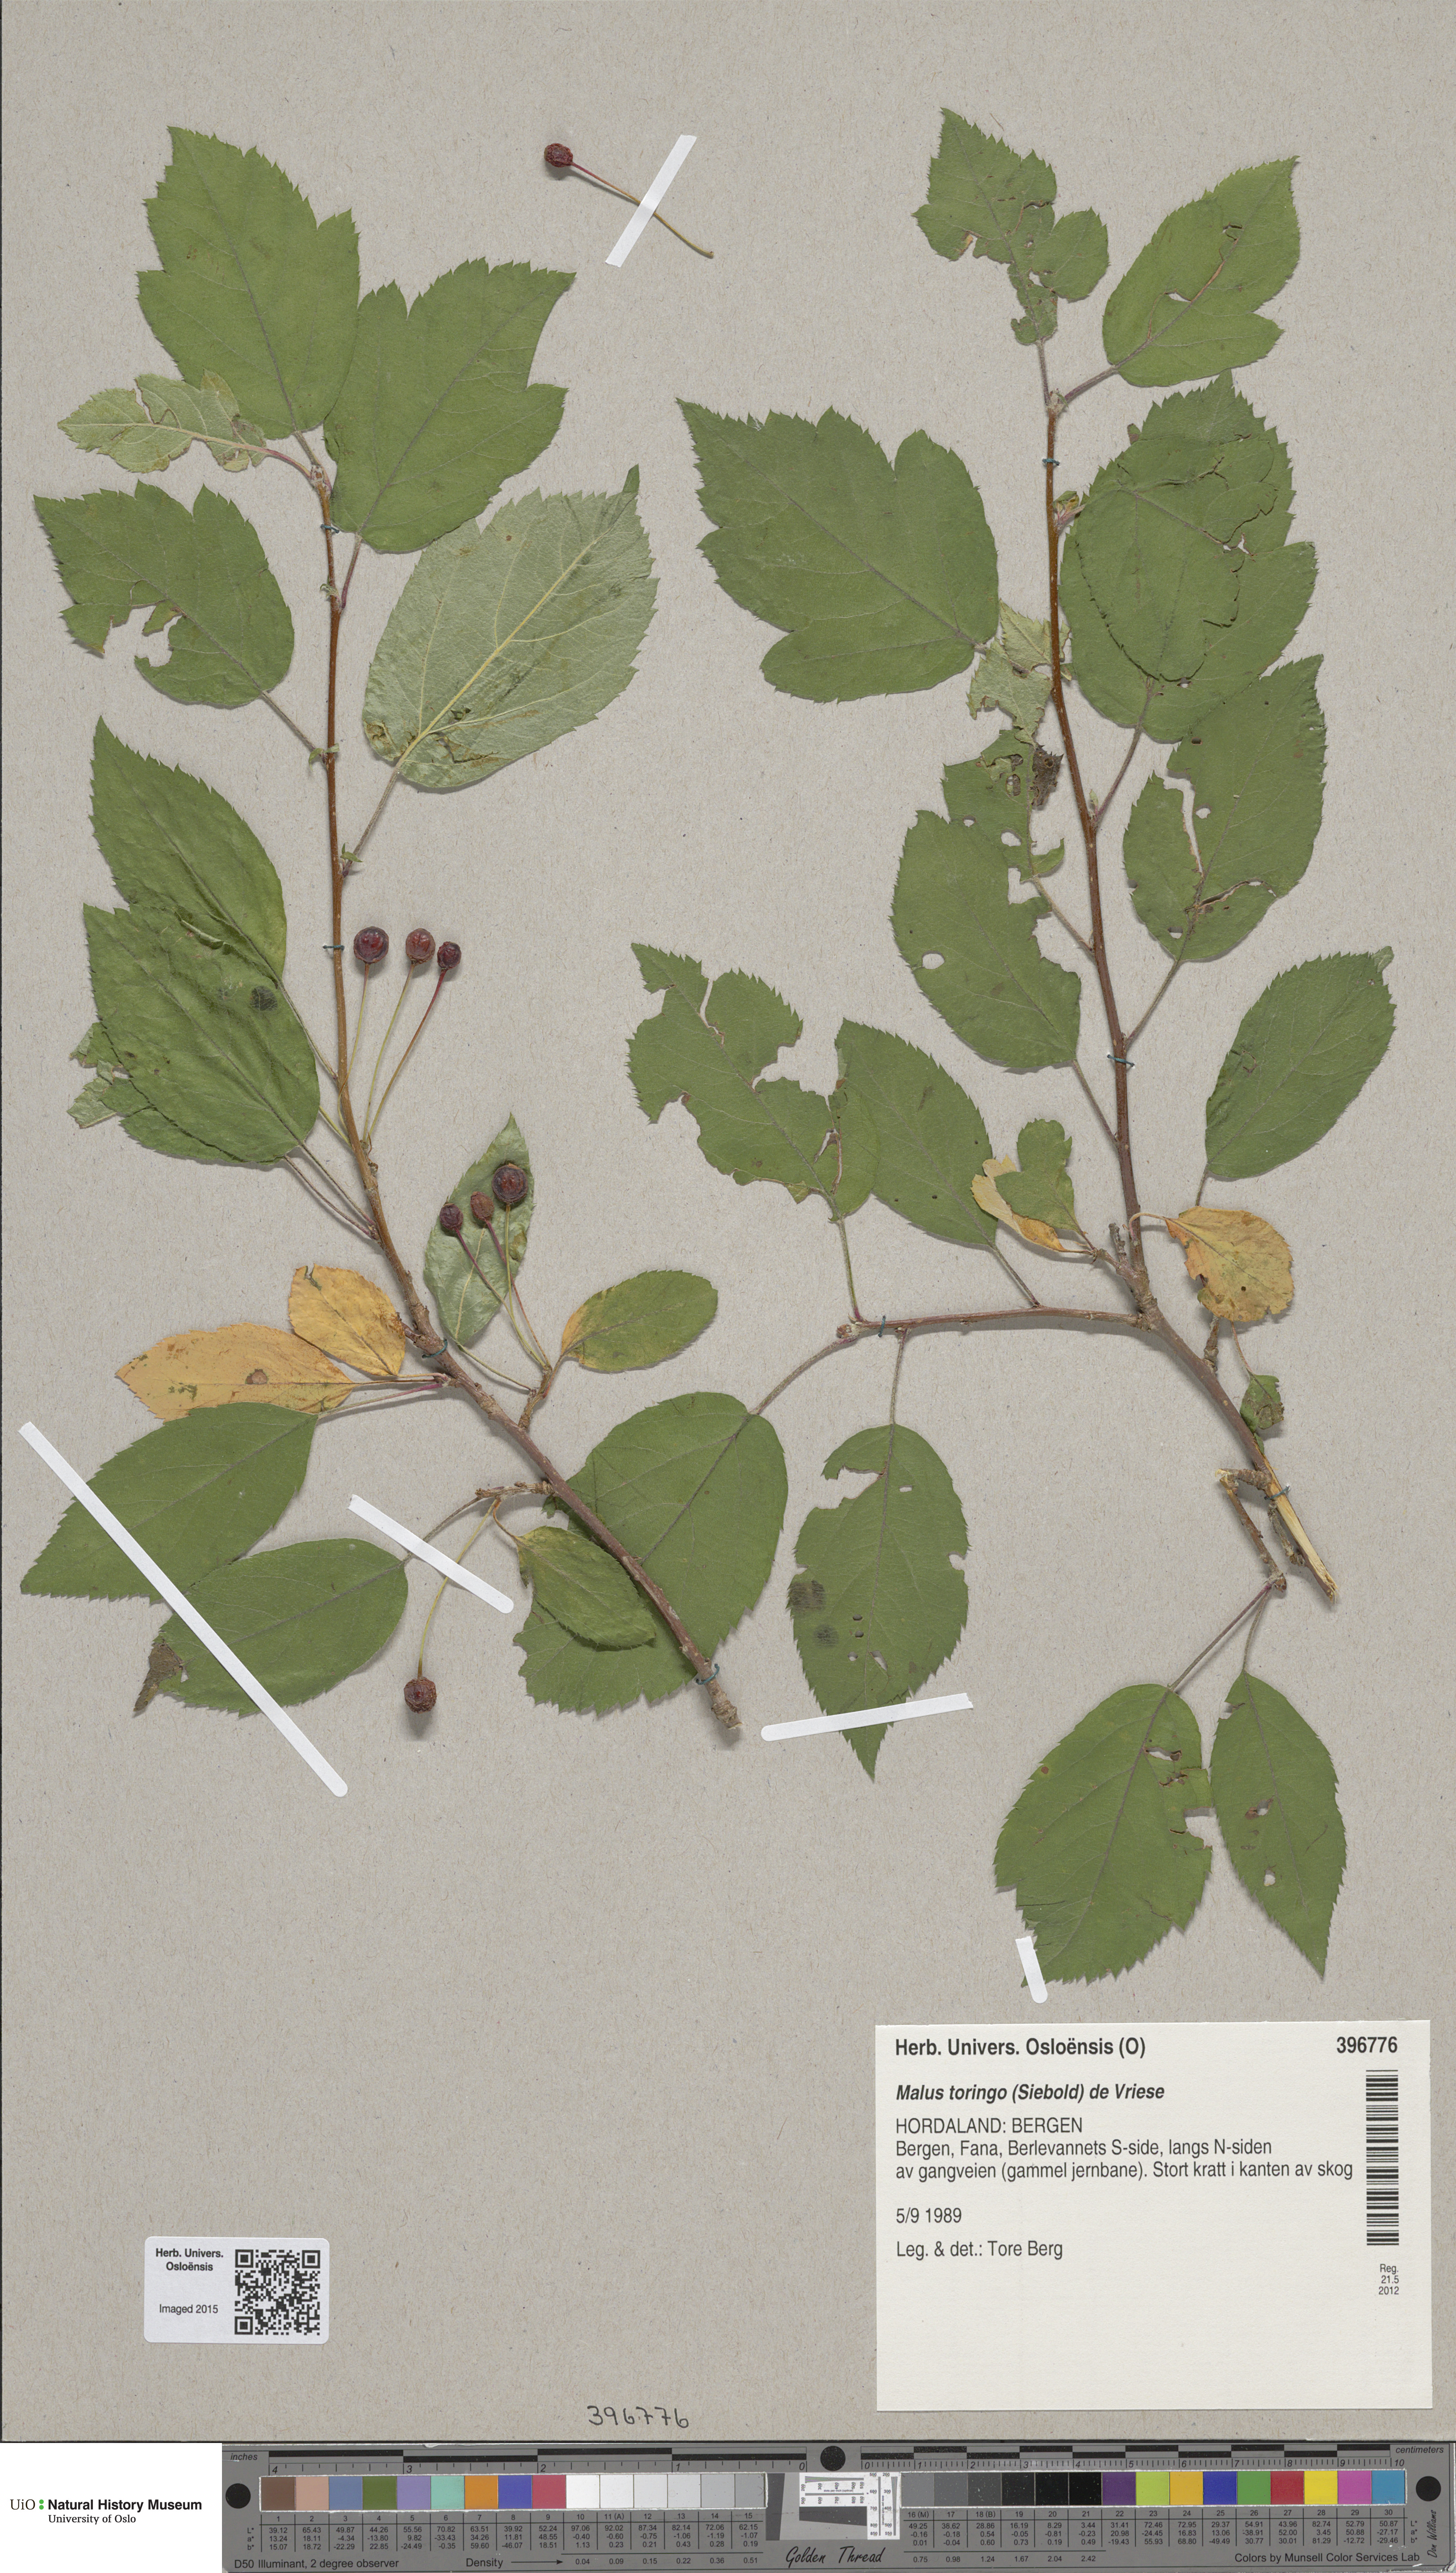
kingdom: Plantae
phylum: Tracheophyta
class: Magnoliopsida
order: Rosales
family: Rosaceae
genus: Malus
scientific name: Malus toringo
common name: Japanese crabapple
